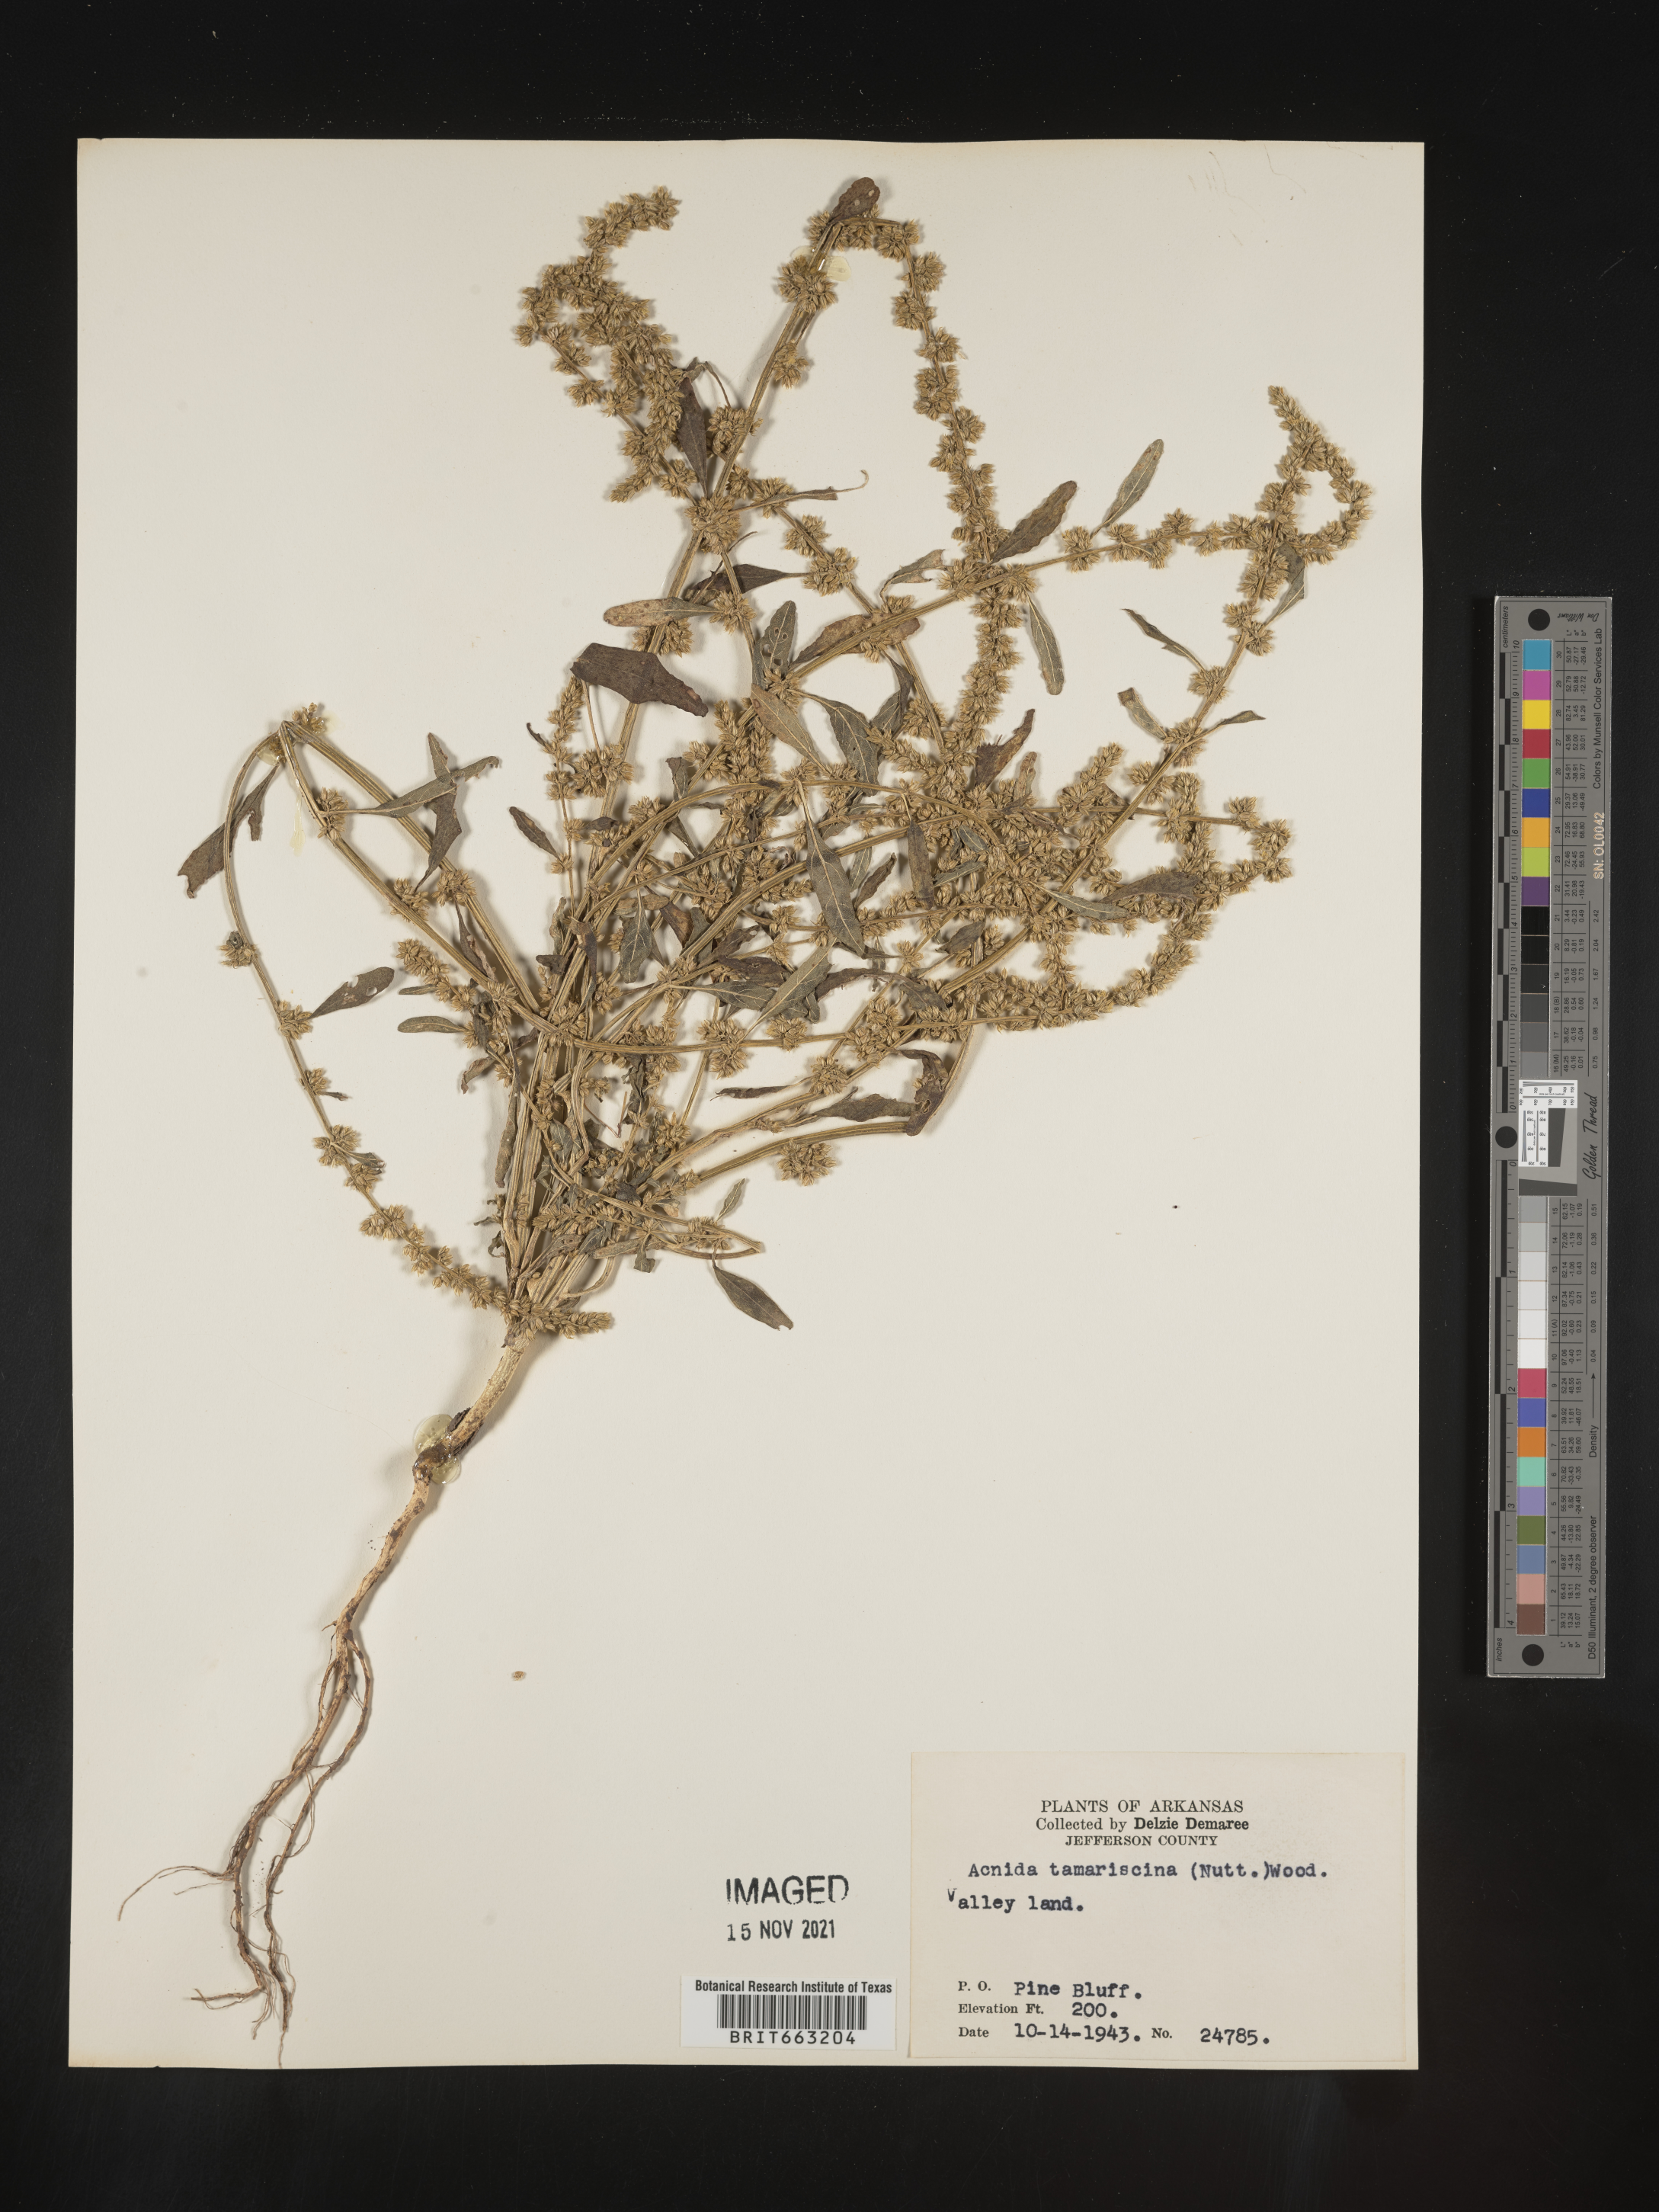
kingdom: Plantae
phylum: Tracheophyta
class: Magnoliopsida
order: Caryophyllales
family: Amaranthaceae
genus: Amaranthus
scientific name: Amaranthus tamariscinus
